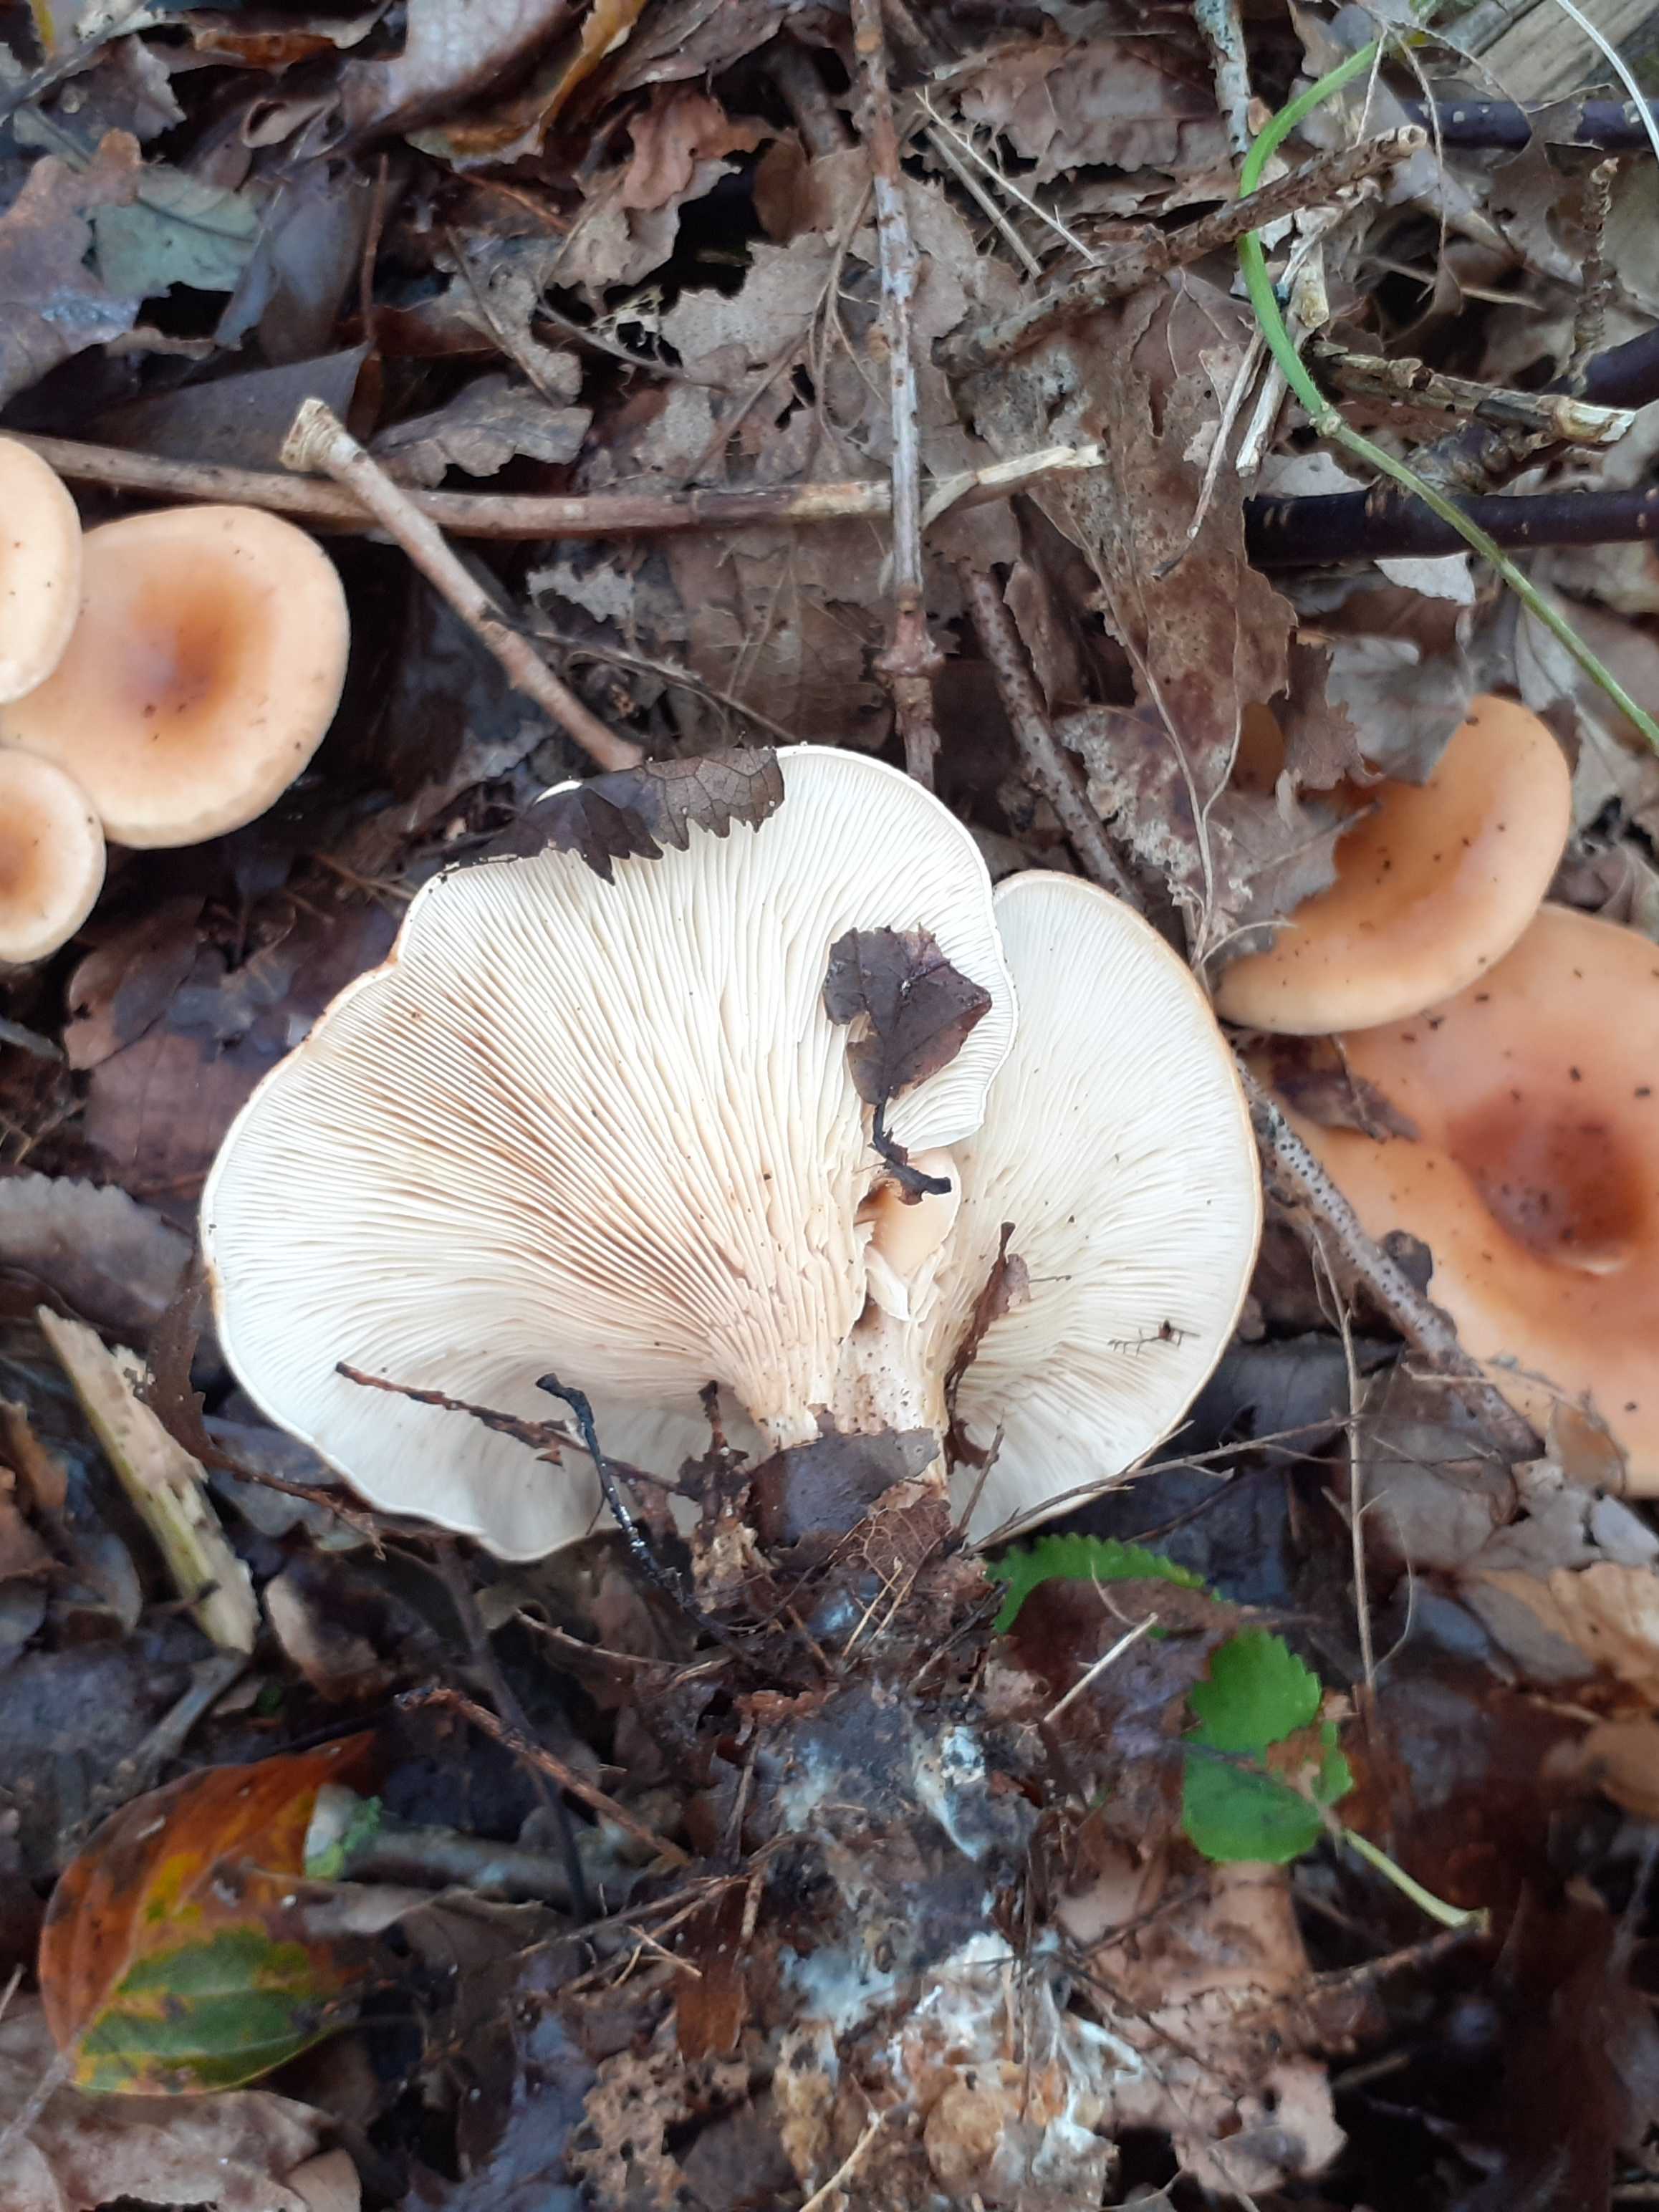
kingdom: Fungi
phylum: Basidiomycota
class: Agaricomycetes
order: Agaricales
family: Tricholomataceae
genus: Paralepista
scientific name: Paralepista flaccida
